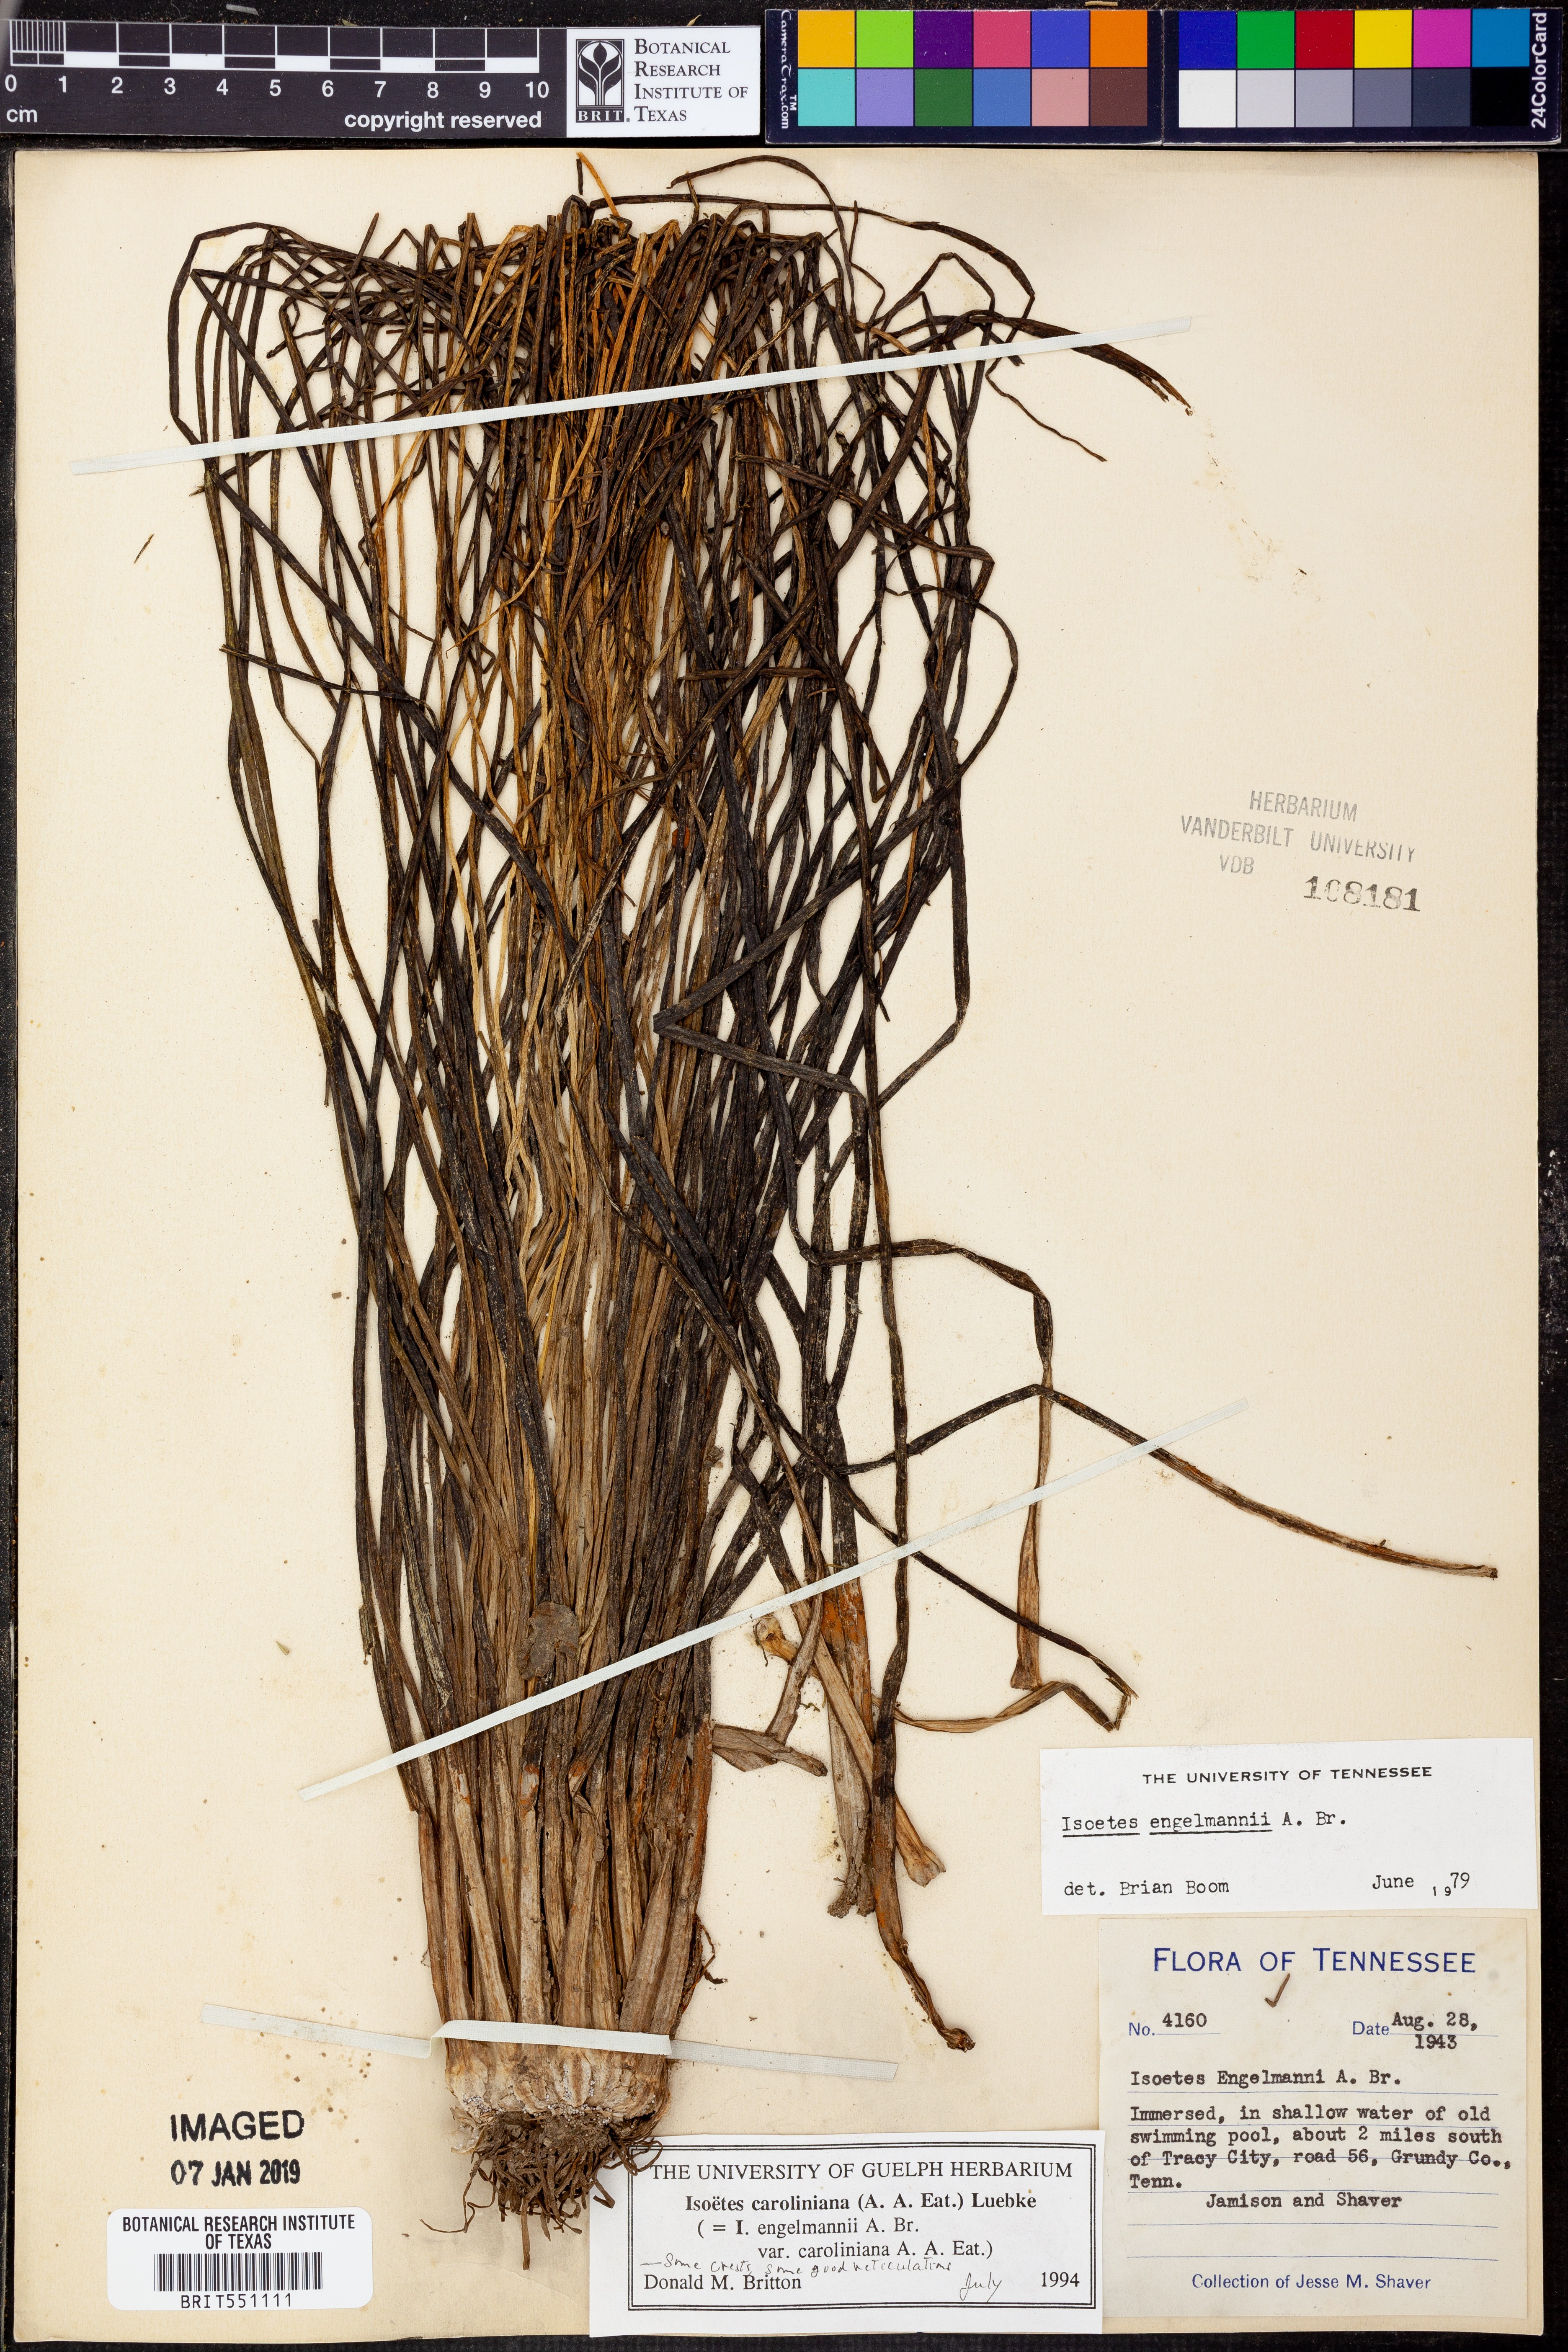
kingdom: Plantae
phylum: Tracheophyta
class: Lycopodiopsida
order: Isoetales
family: Isoetaceae
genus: Isoetes
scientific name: Isoetes caroliniana
